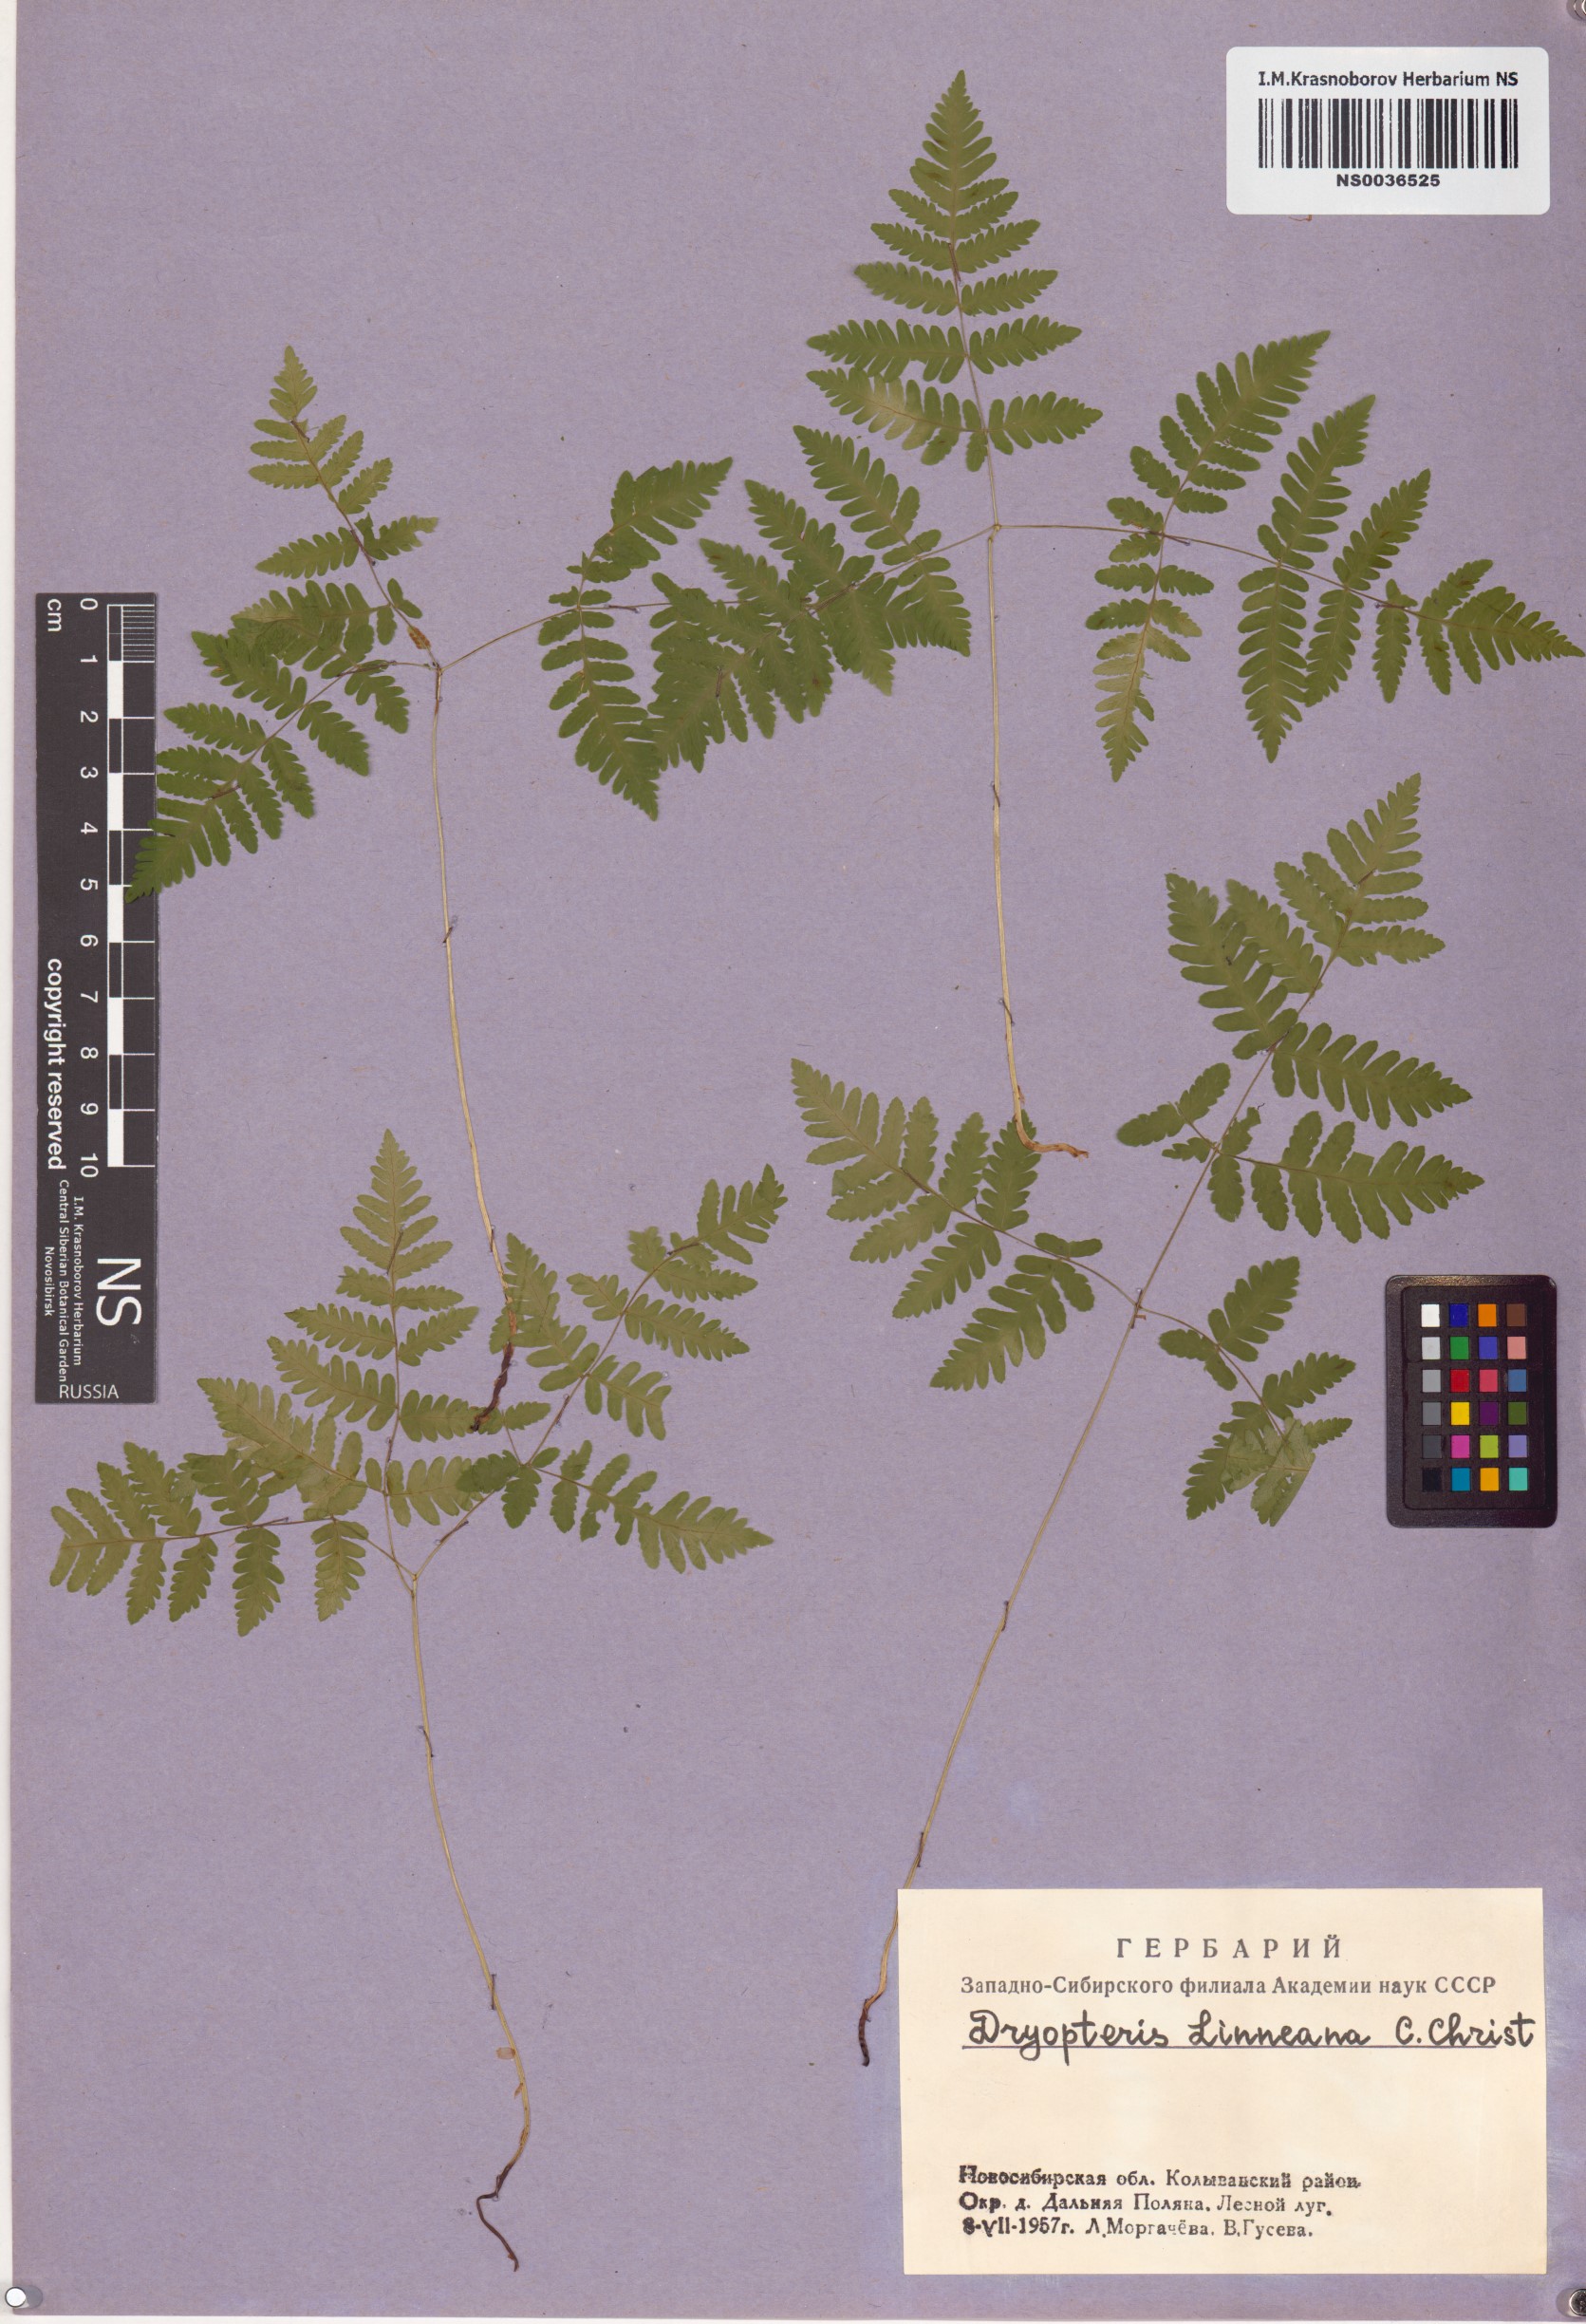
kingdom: Plantae
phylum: Tracheophyta
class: Polypodiopsida
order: Polypodiales
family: Cystopteridaceae
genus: Gymnocarpium
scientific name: Gymnocarpium dryopteris
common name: Oak fern
